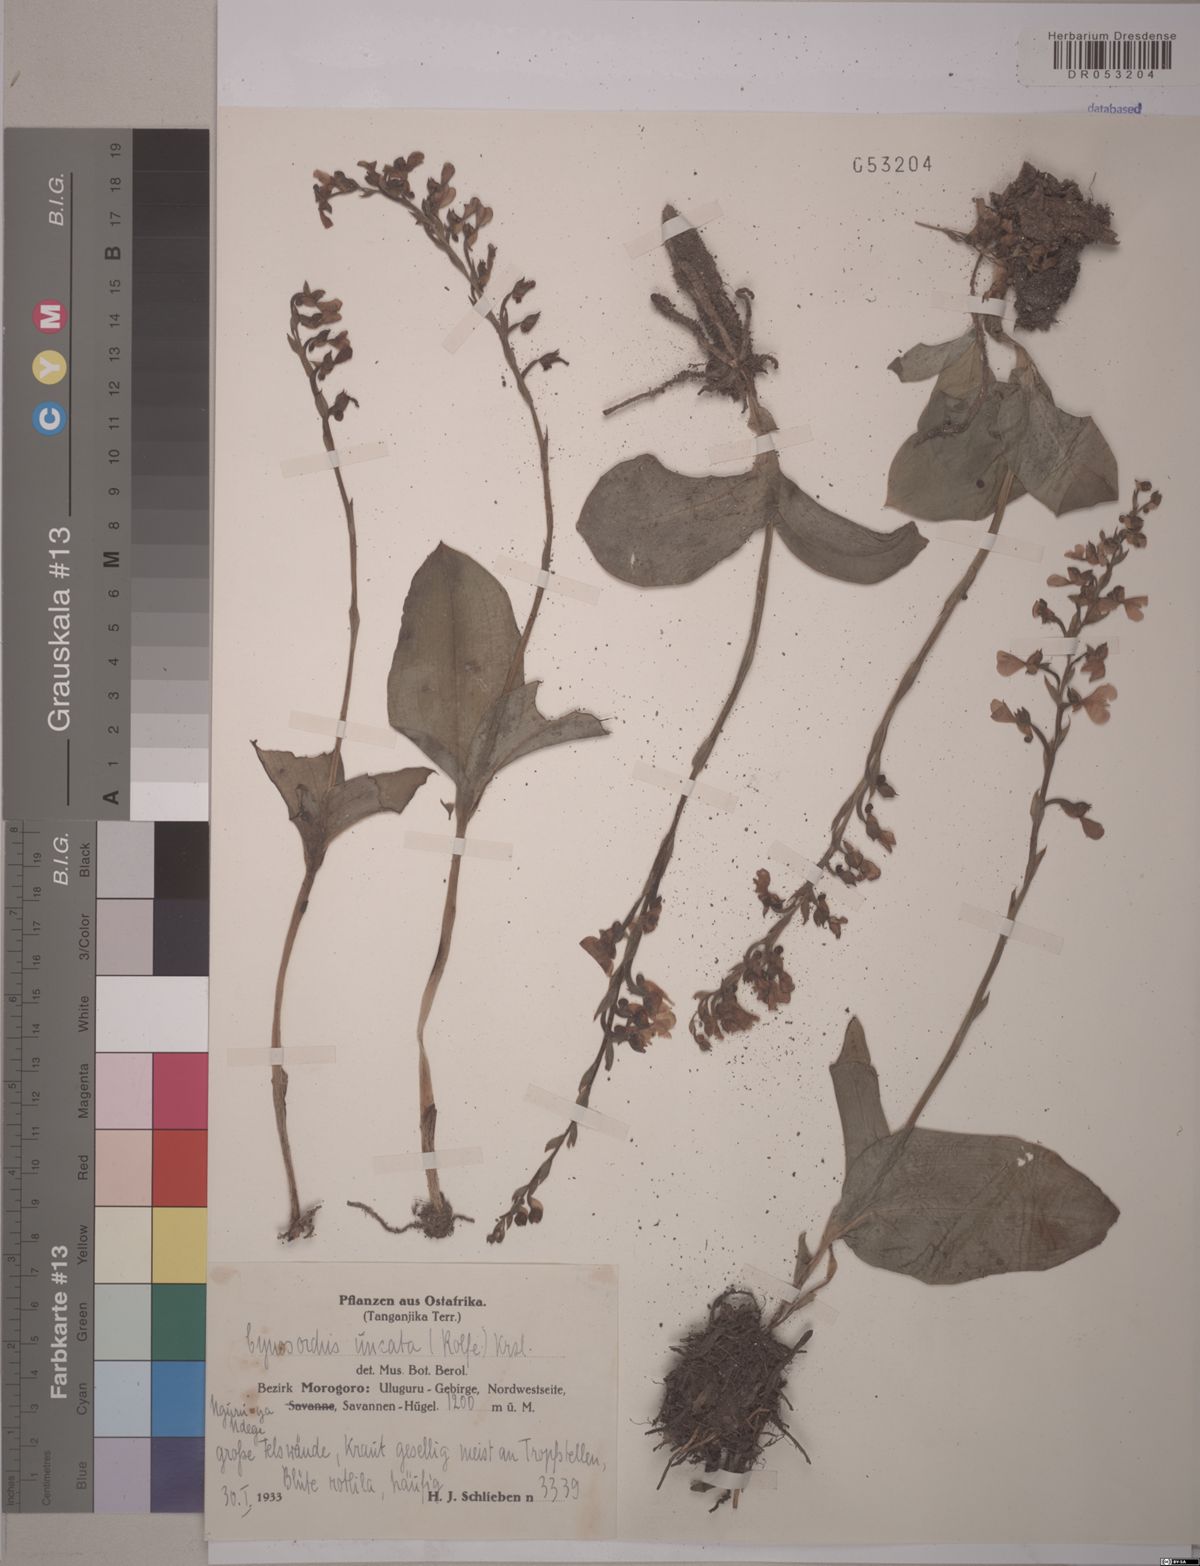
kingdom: Plantae
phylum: Tracheophyta
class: Liliopsida
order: Asparagales
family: Orchidaceae
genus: Cynorkis
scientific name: Cynorkis uncata
